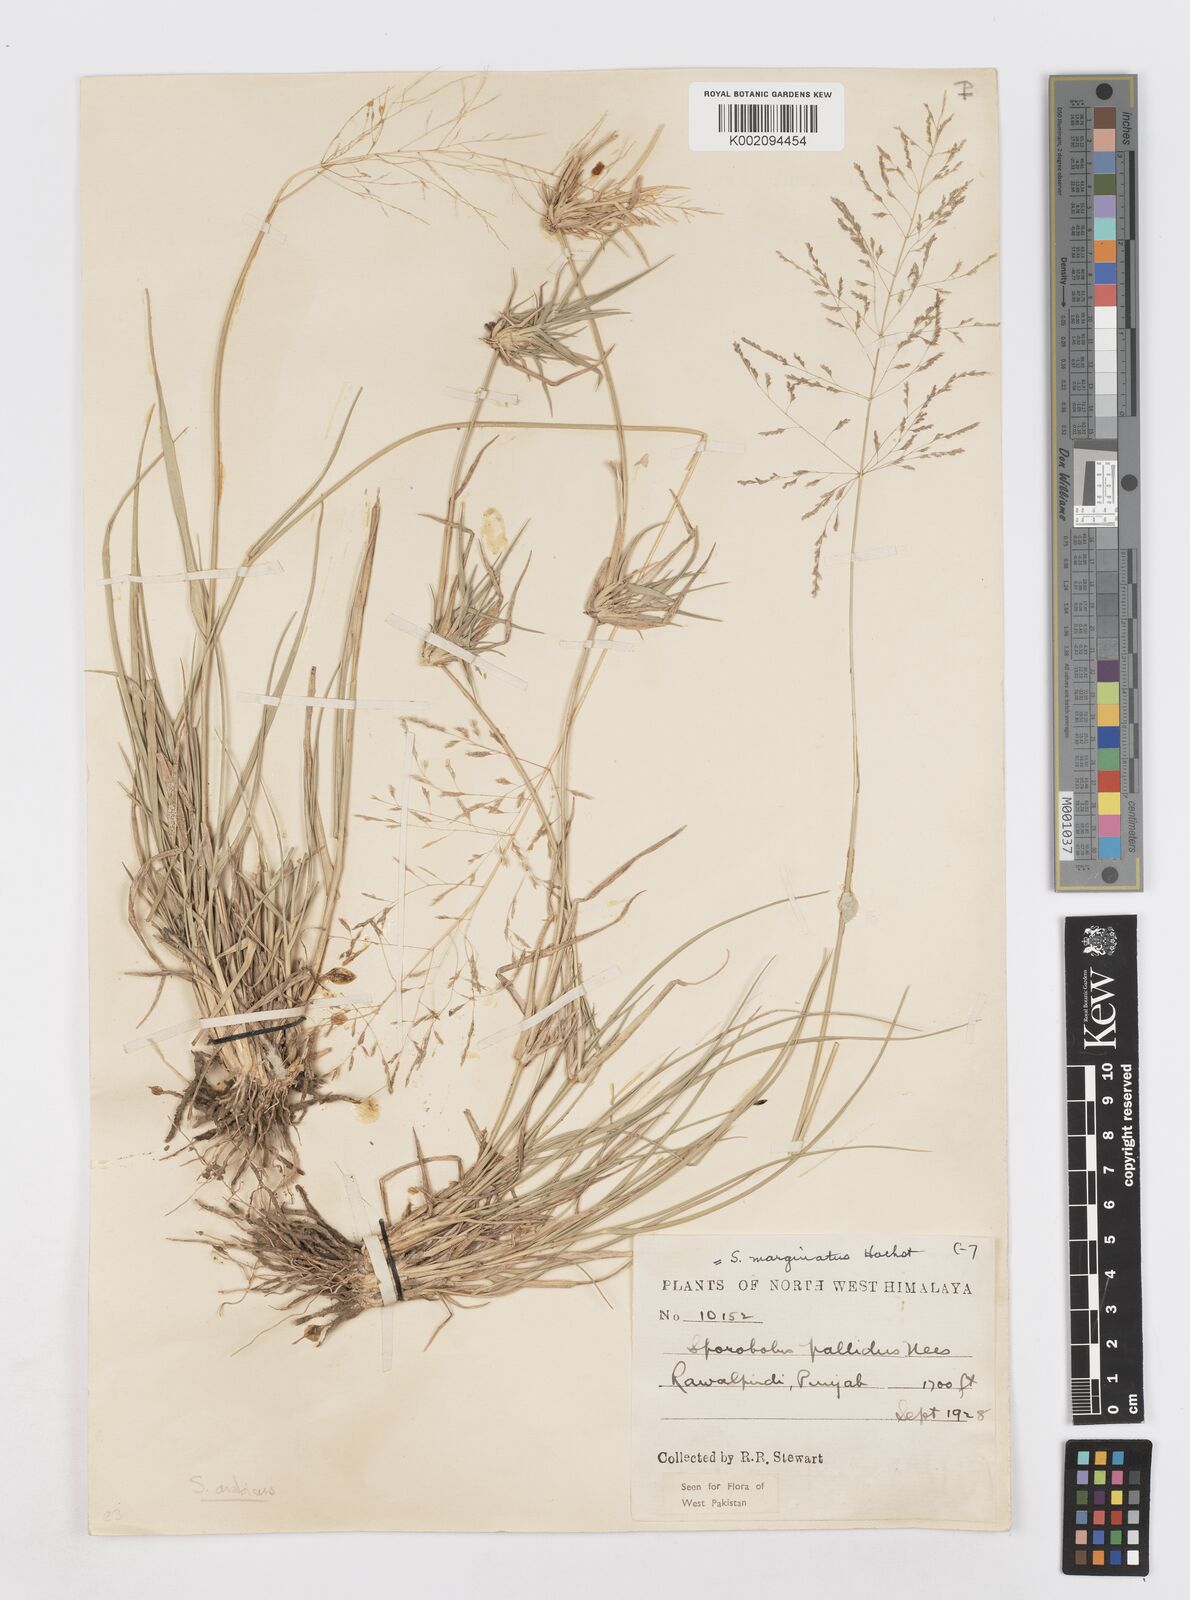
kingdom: Plantae
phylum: Tracheophyta
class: Liliopsida
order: Poales
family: Poaceae
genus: Sporobolus
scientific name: Sporobolus ioclados
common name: Pan dropseed
